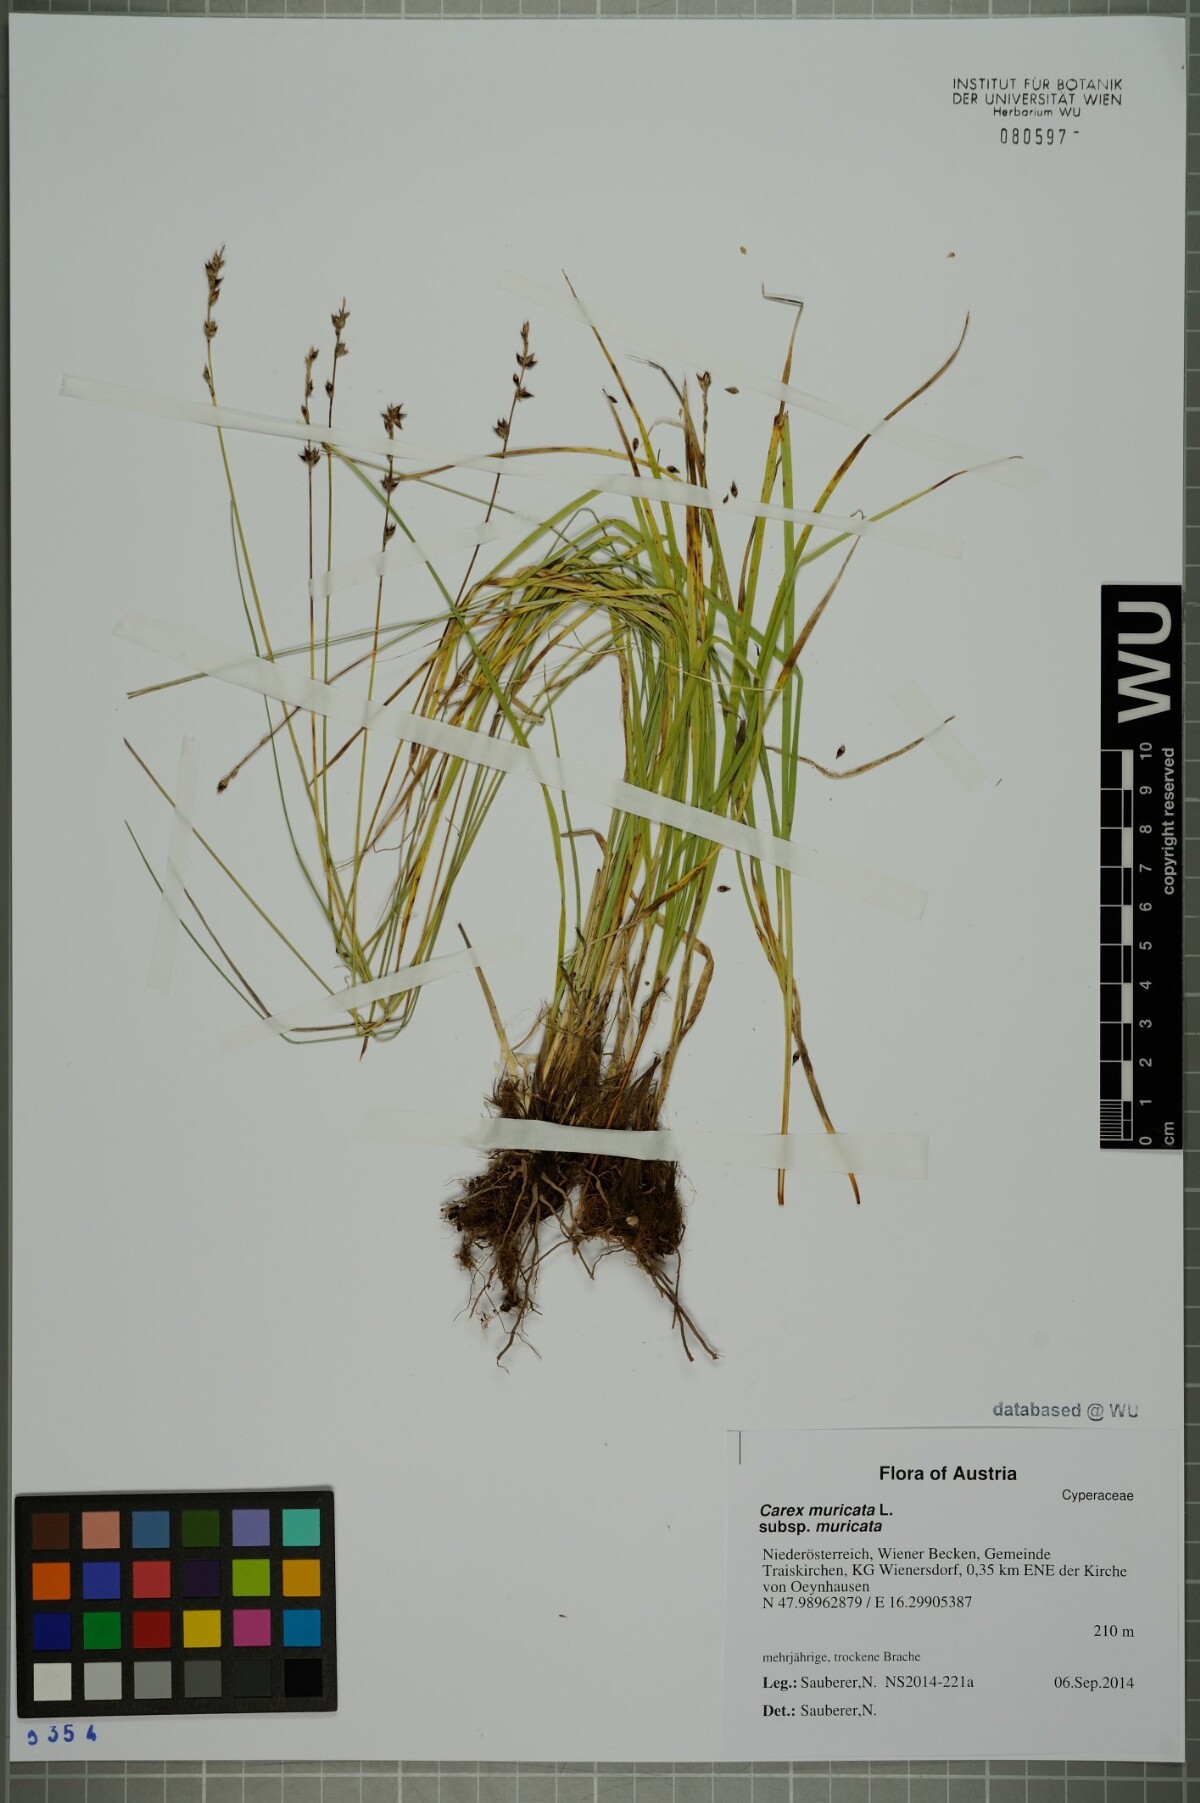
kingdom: Plantae
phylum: Tracheophyta
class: Liliopsida
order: Poales
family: Cyperaceae
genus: Carex
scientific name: Carex muricata
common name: Rough sedge
